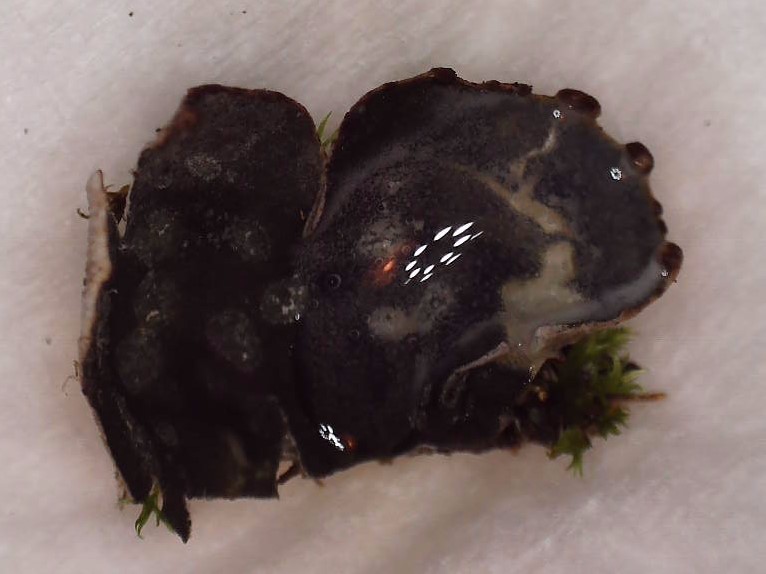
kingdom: Fungi
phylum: Ascomycota
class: Lecanoromycetes
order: Peltigerales
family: Peltigeraceae
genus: Peltigera
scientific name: Peltigera didactyla
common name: liden skjoldlav
